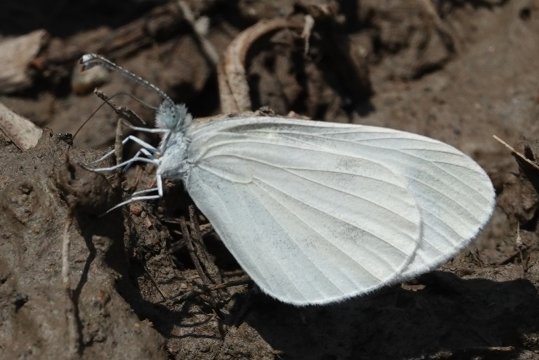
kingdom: Animalia
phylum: Arthropoda
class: Insecta
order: Lepidoptera
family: Pieridae
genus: Leptidea
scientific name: Leptidea sinapis
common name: Wood White
